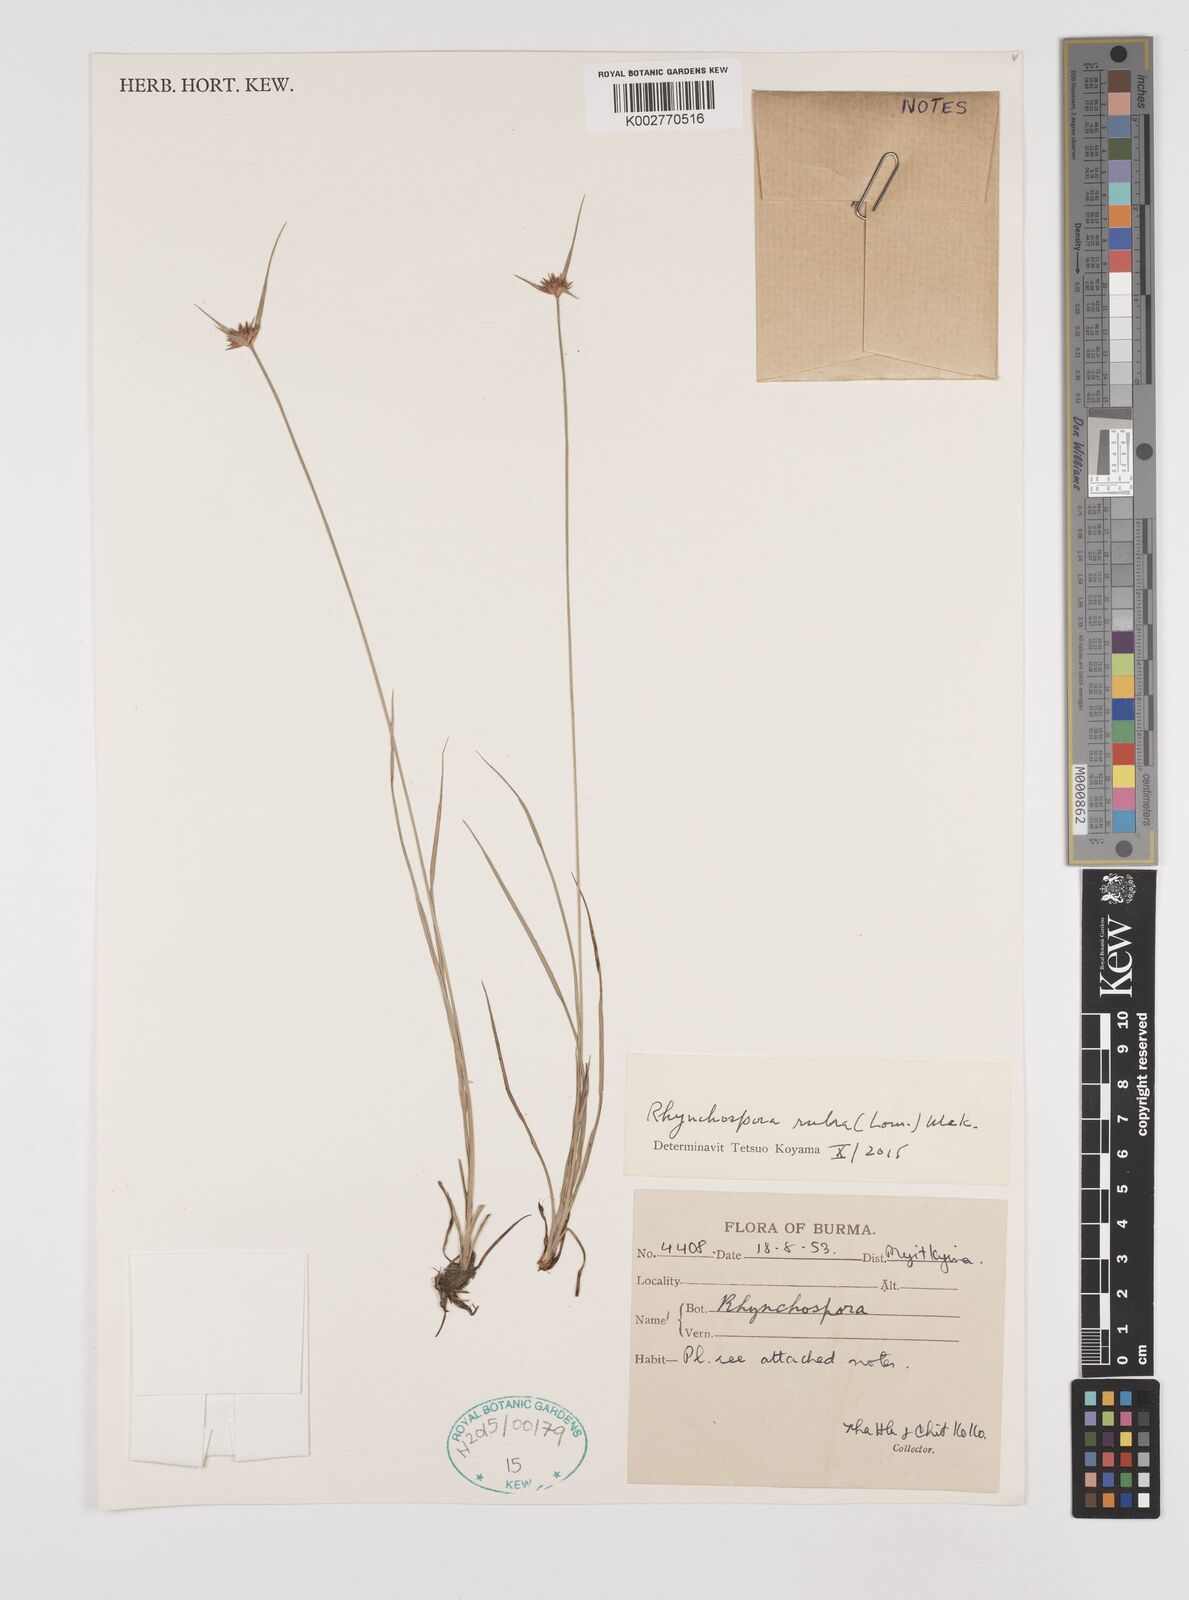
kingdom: Plantae
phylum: Tracheophyta
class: Liliopsida
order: Poales
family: Cyperaceae
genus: Rhynchospora
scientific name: Rhynchospora rubra
